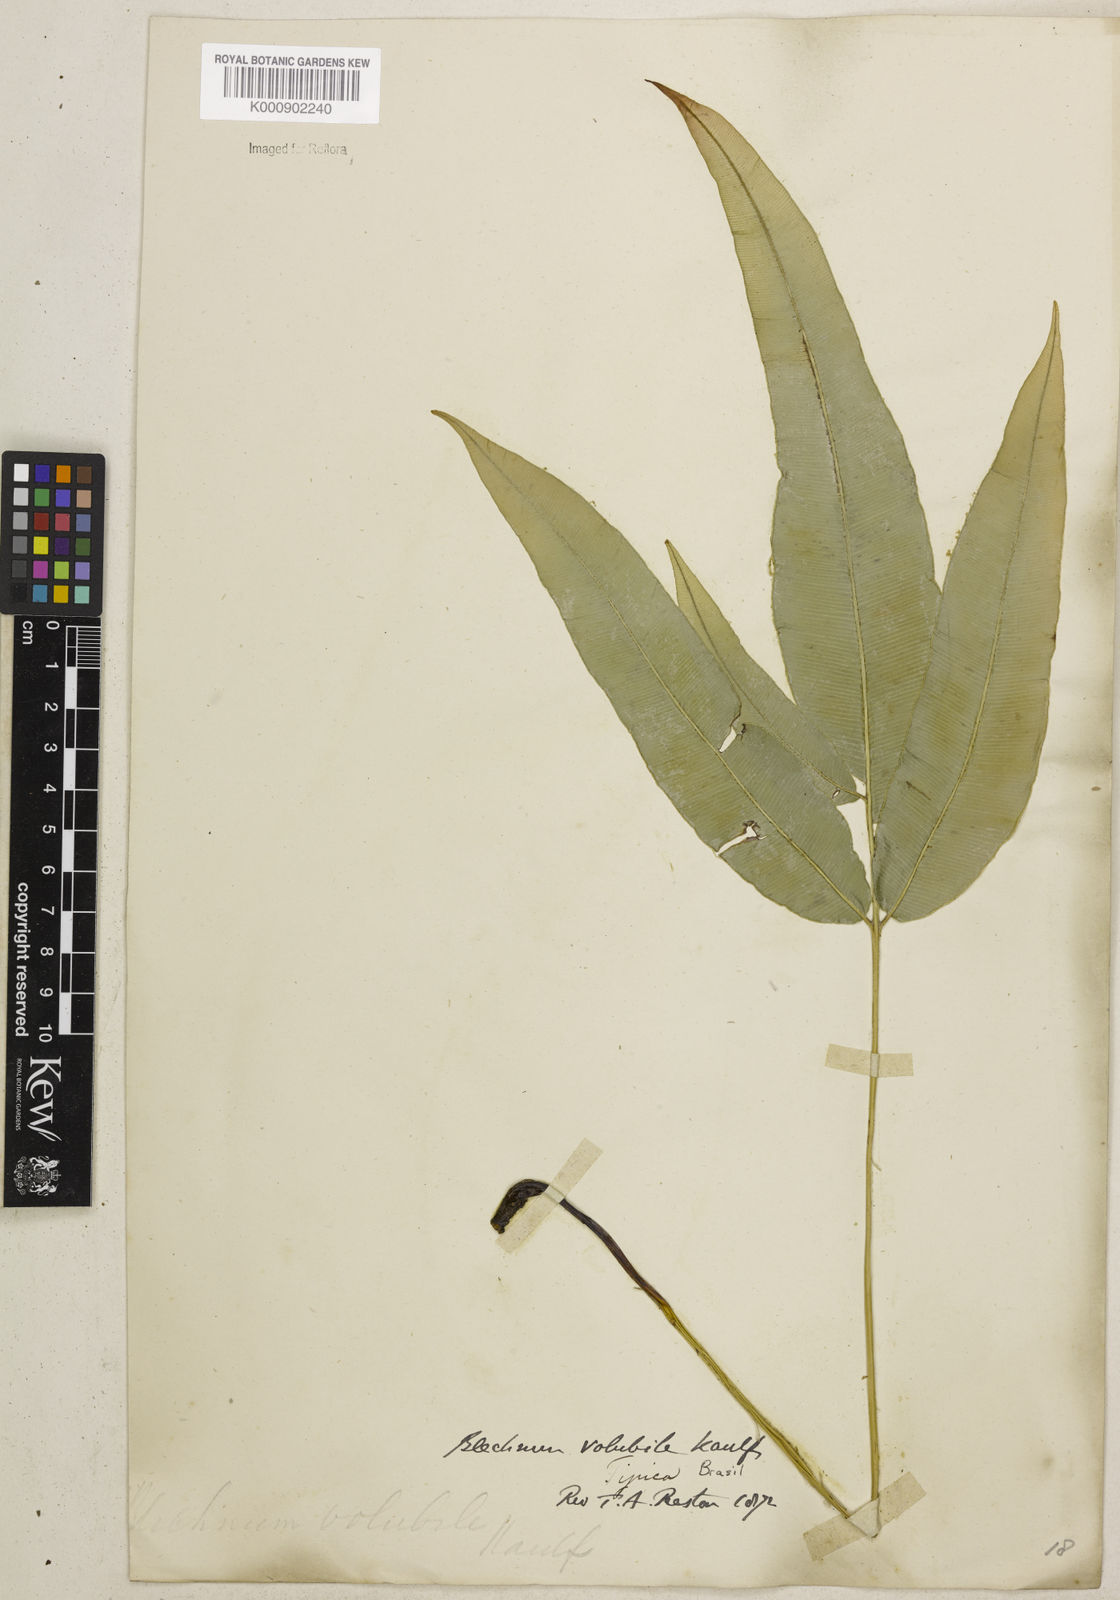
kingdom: Plantae
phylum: Tracheophyta
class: Polypodiopsida
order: Polypodiales
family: Blechnaceae
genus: Salpichlaena
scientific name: Salpichlaena volubilis
